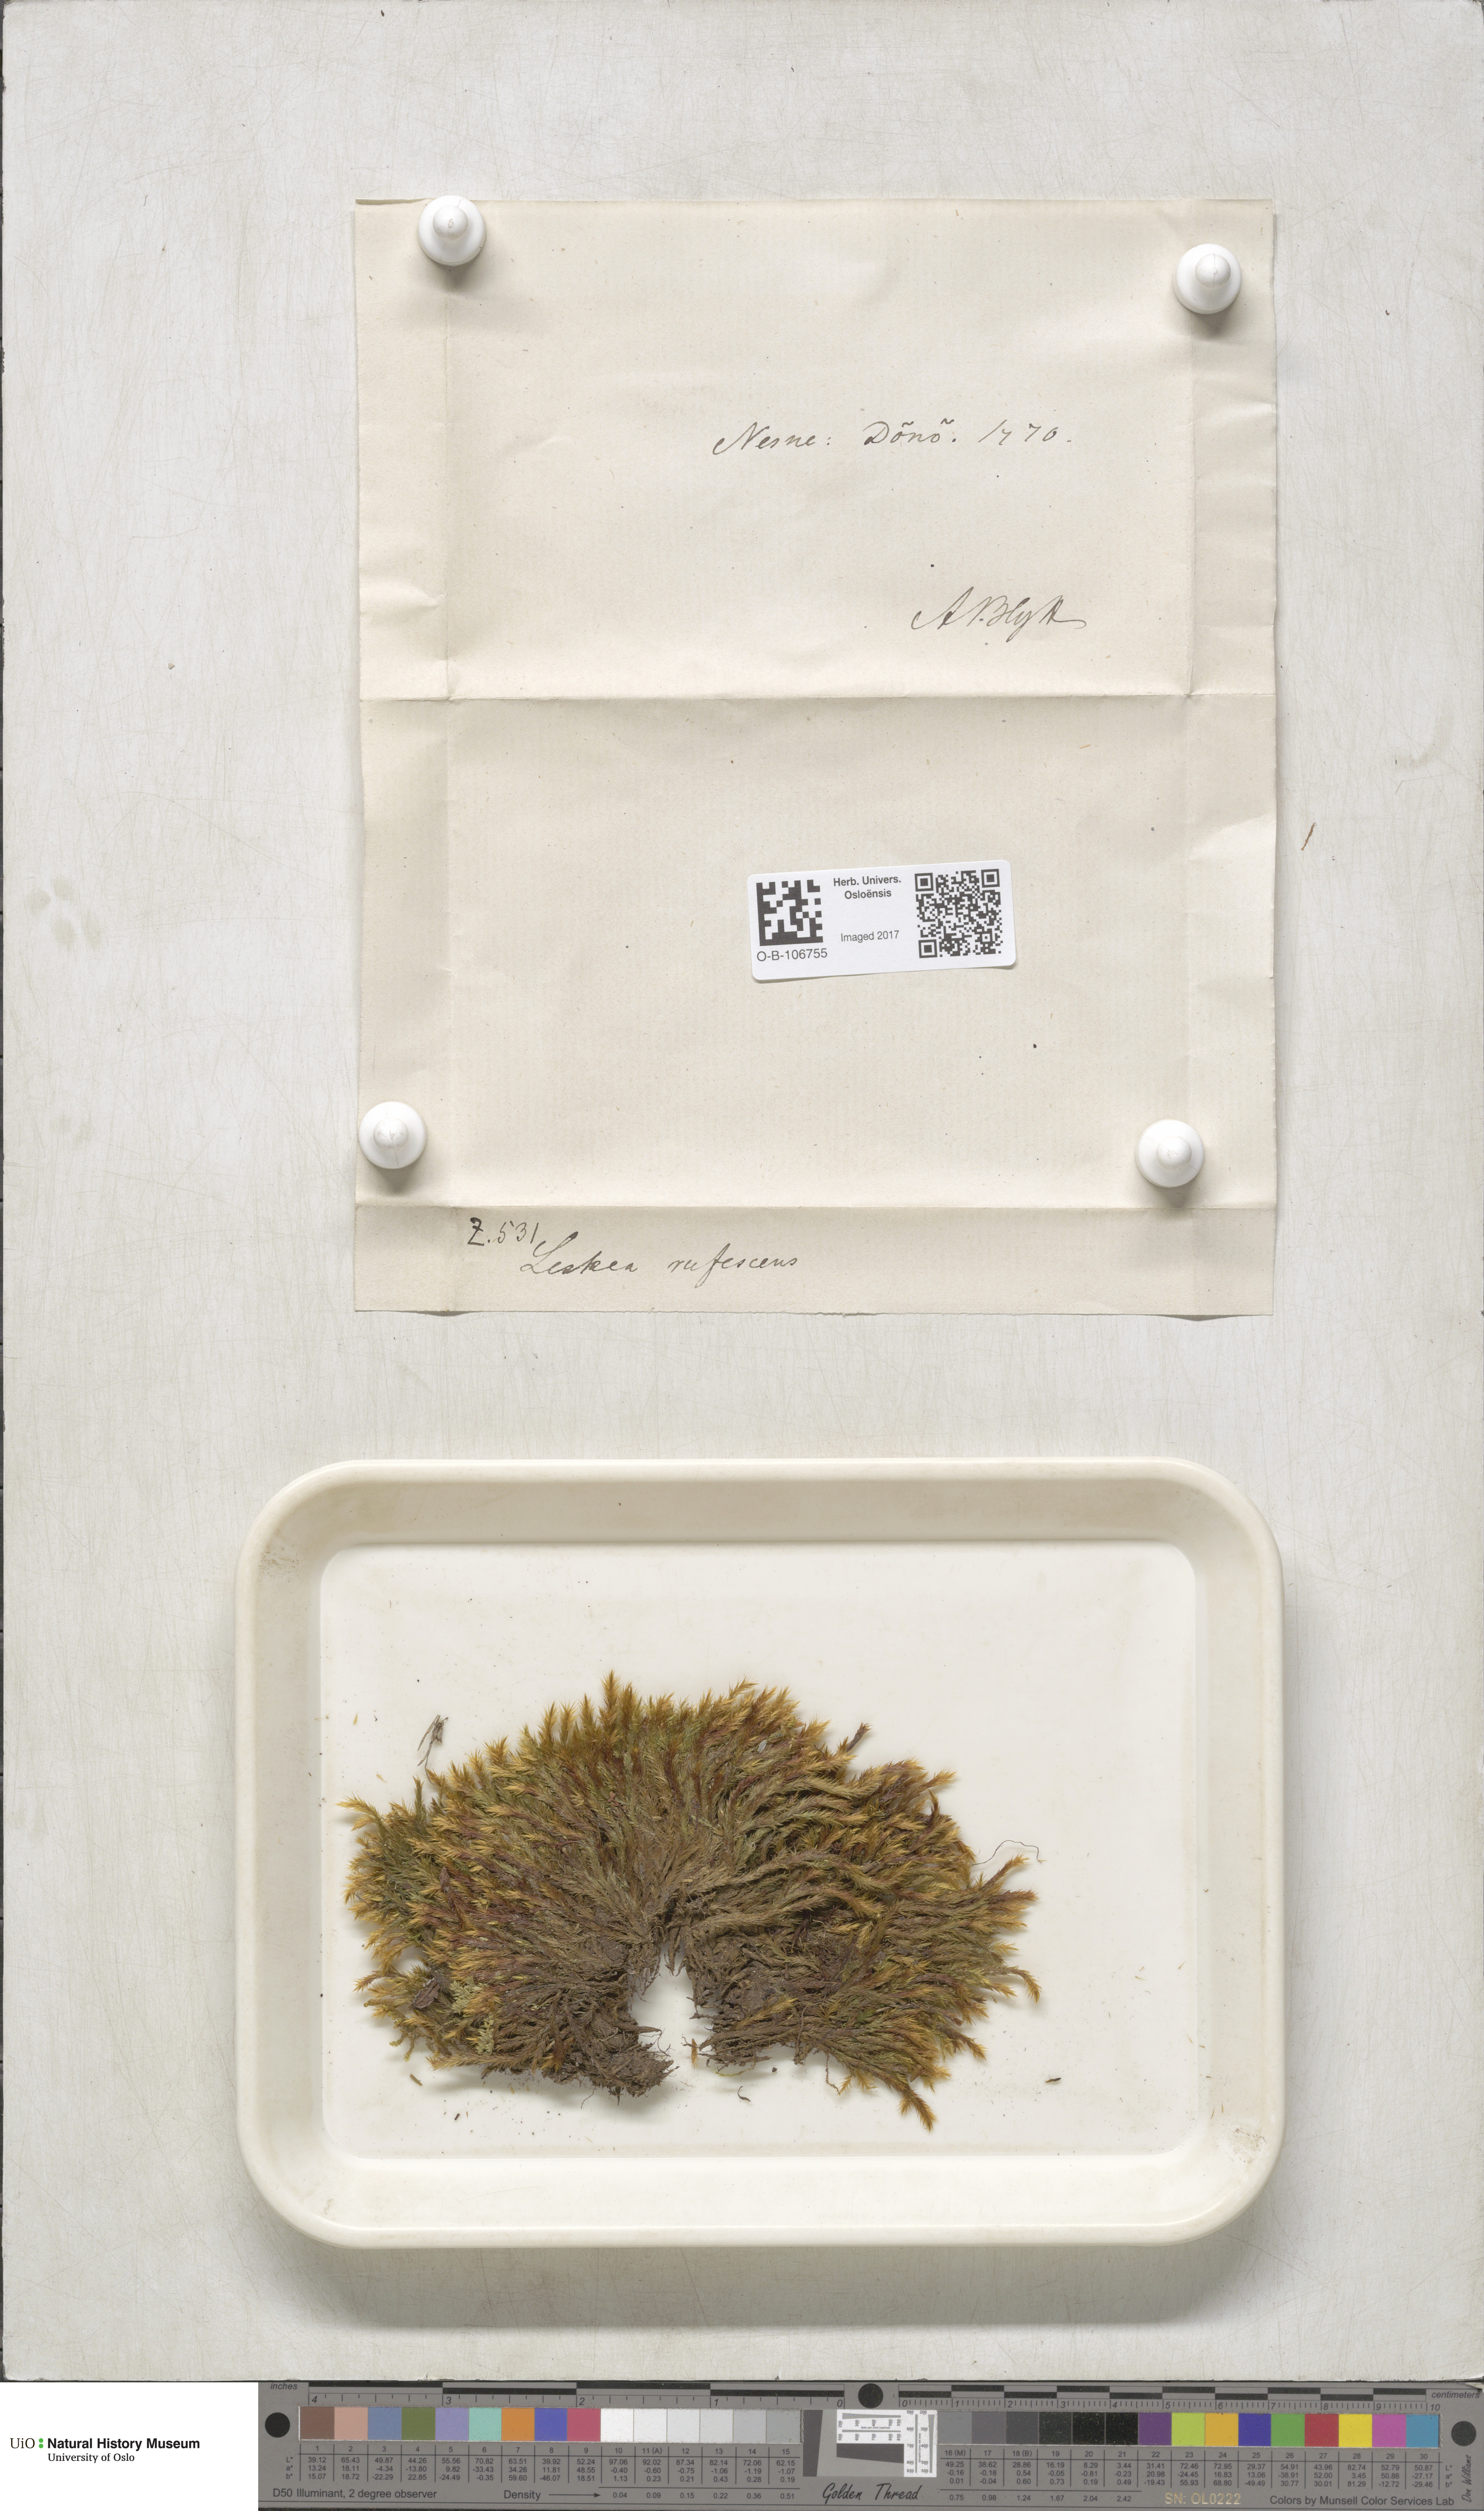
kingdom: Plantae
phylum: Bryophyta
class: Bryopsida
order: Hypnales
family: Plagiotheciaceae
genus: Orthothecium
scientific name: Orthothecium rufescens
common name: Red leskea
